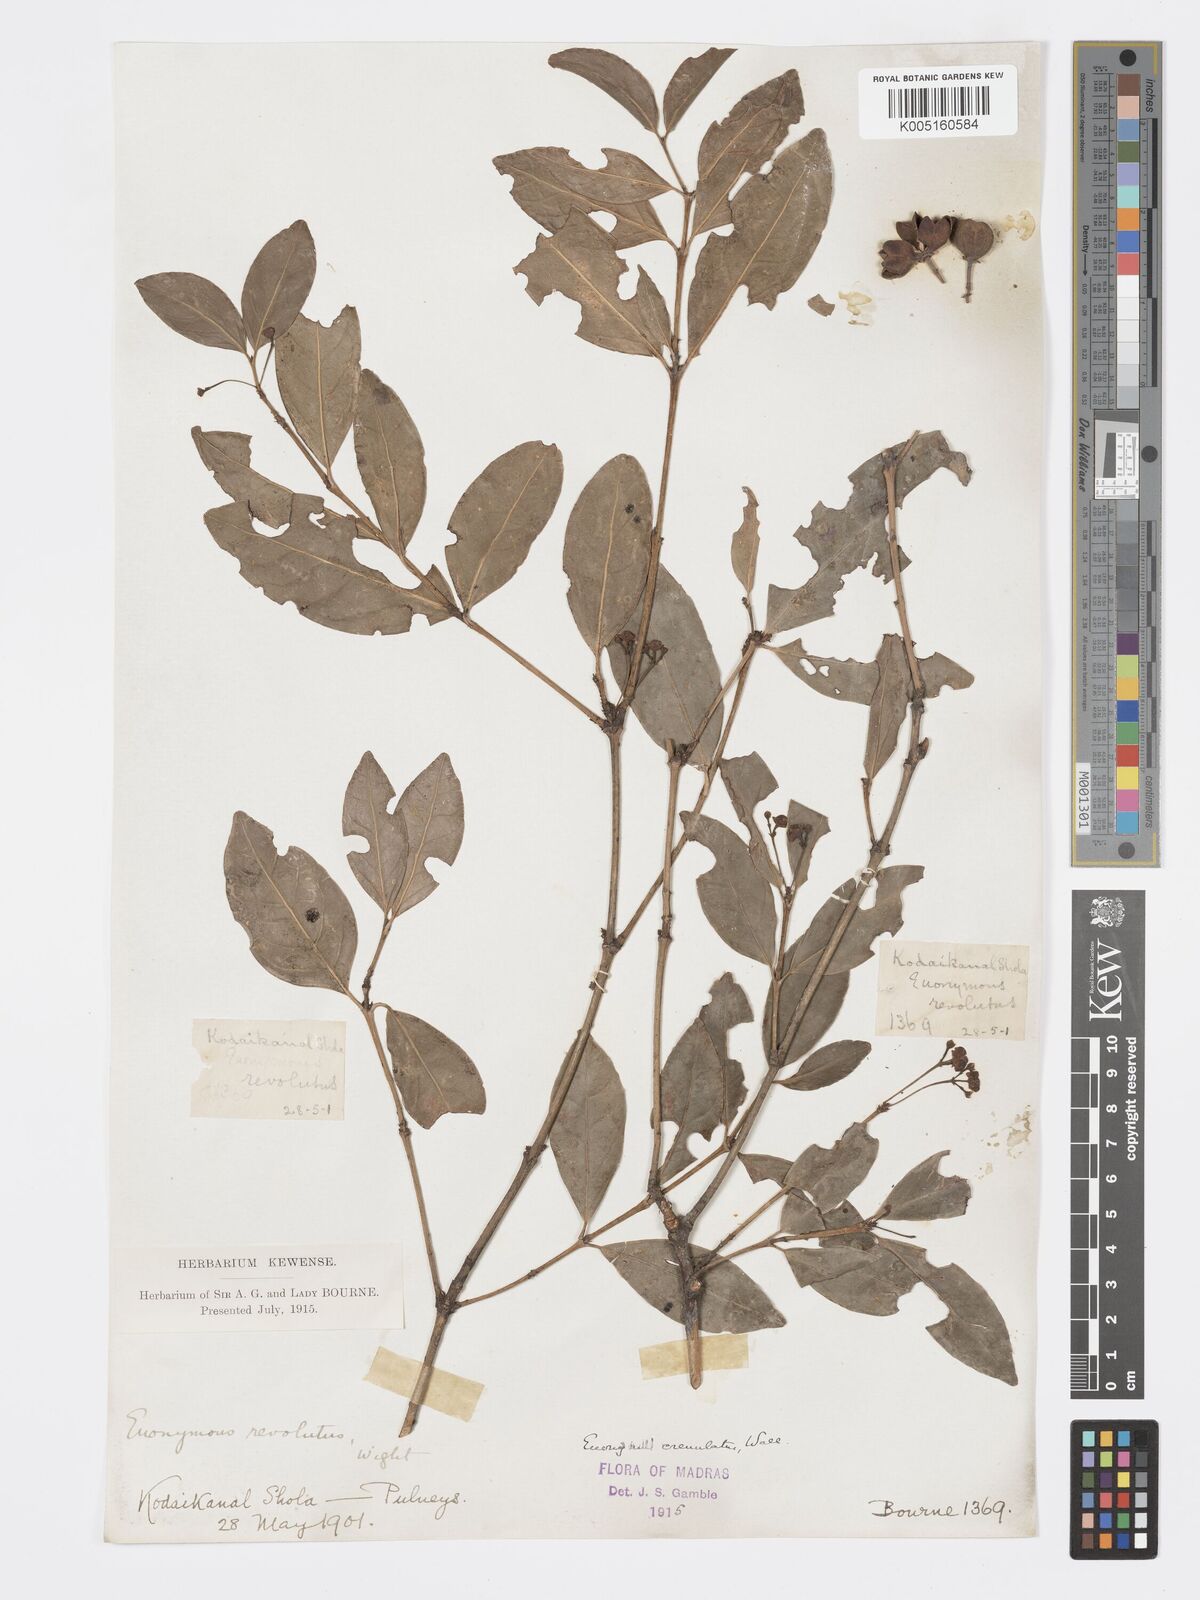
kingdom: Plantae
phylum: Tracheophyta
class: Magnoliopsida
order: Celastrales
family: Celastraceae
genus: Euonymus
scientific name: Euonymus crenulatus
